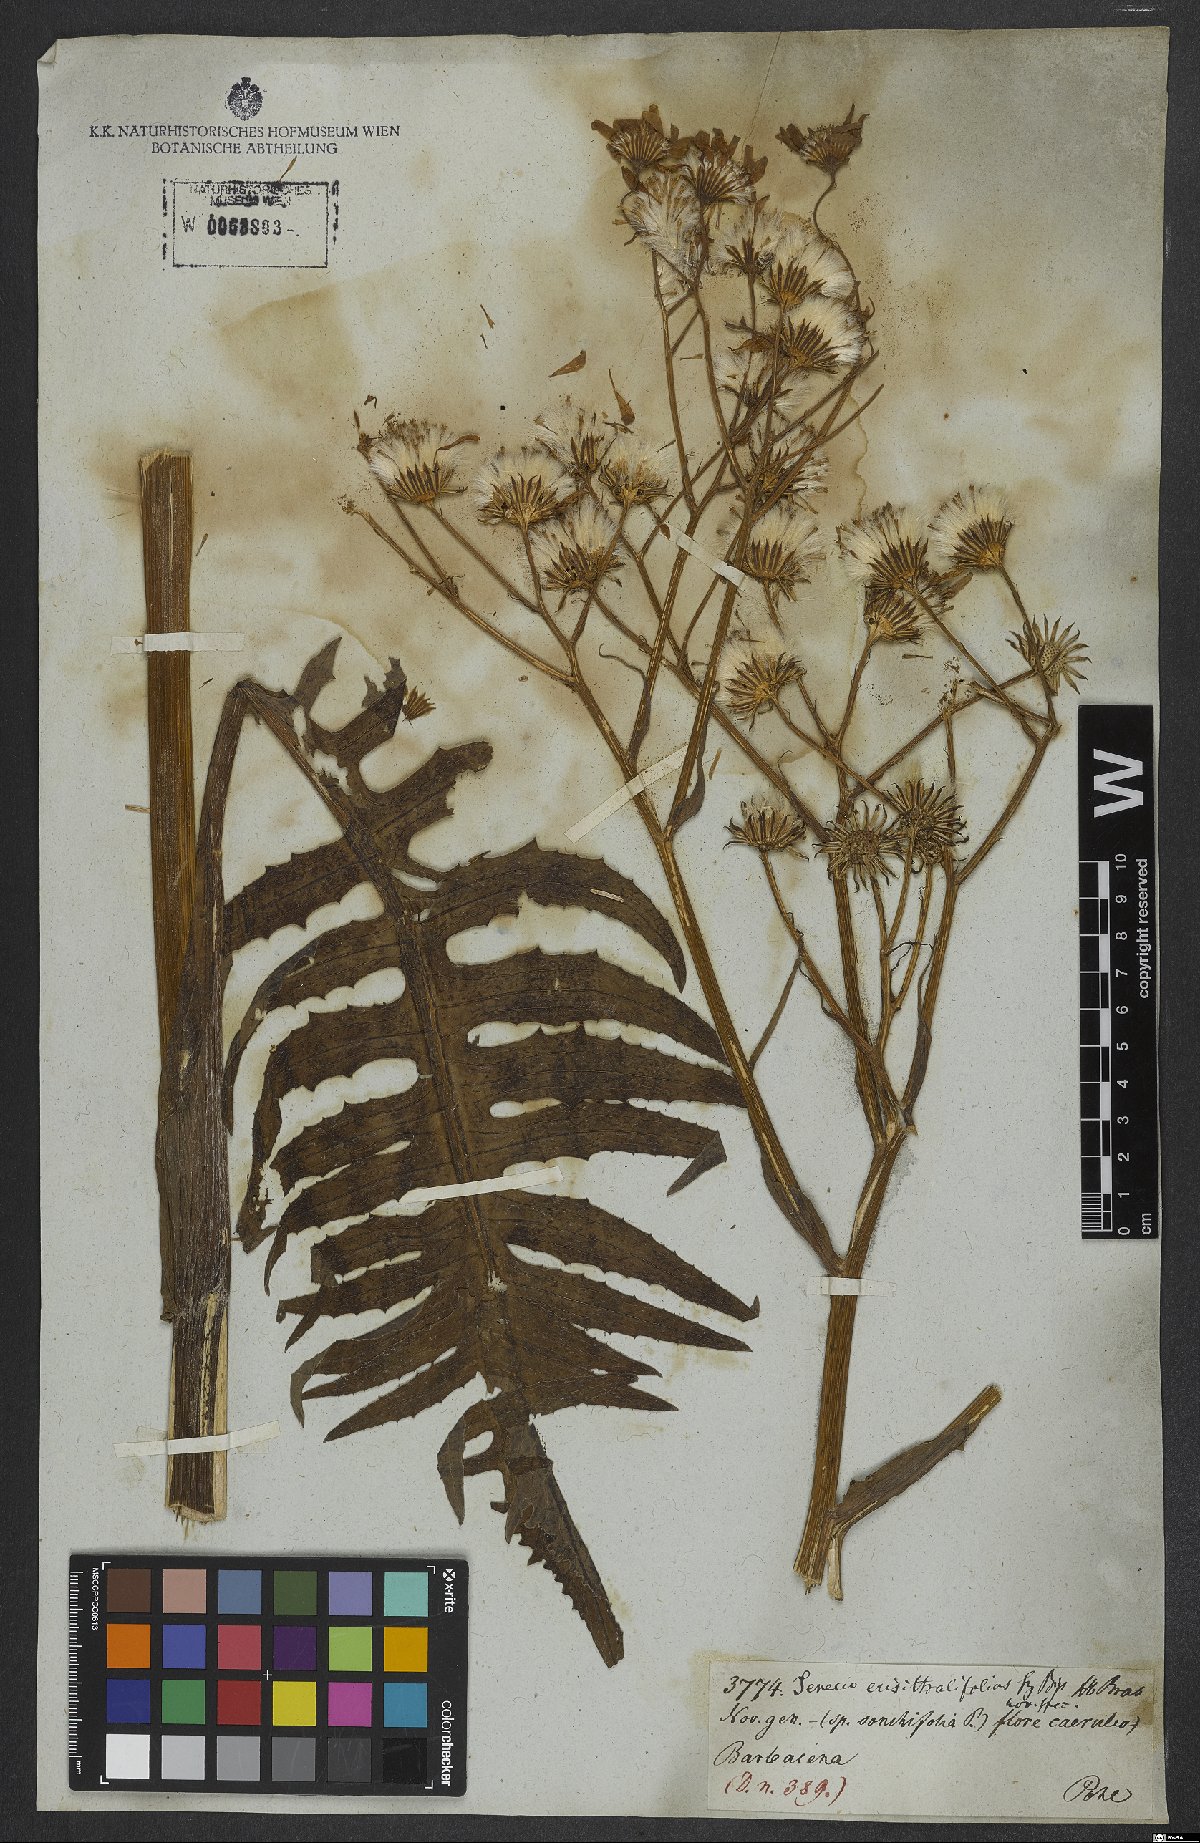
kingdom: Plantae
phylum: Tracheophyta
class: Magnoliopsida
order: Asterales
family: Asteraceae
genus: Senecio
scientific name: Senecio erisithalifolius
